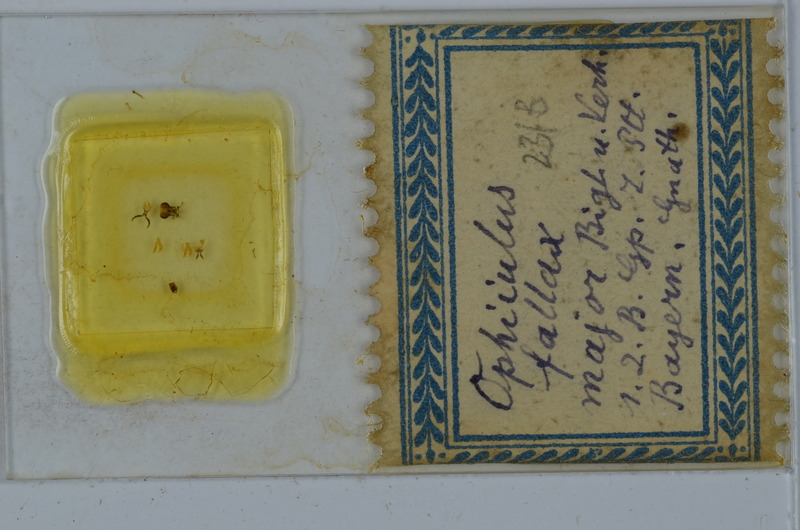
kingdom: Animalia
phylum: Arthropoda
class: Diplopoda
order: Julida
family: Julidae
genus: Ophyiulus
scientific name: Ophyiulus pilosus
